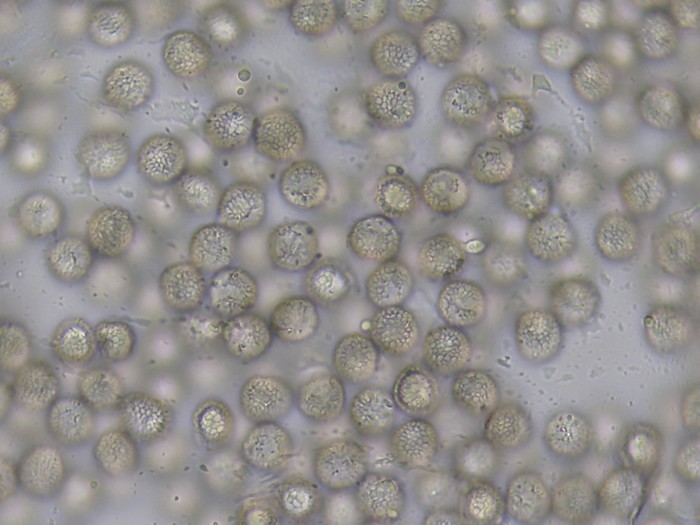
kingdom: Protozoa
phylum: Mycetozoa
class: Myxomycetes
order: Trichiales
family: Dianemataceae
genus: Dianema
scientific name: Dianema depressum
